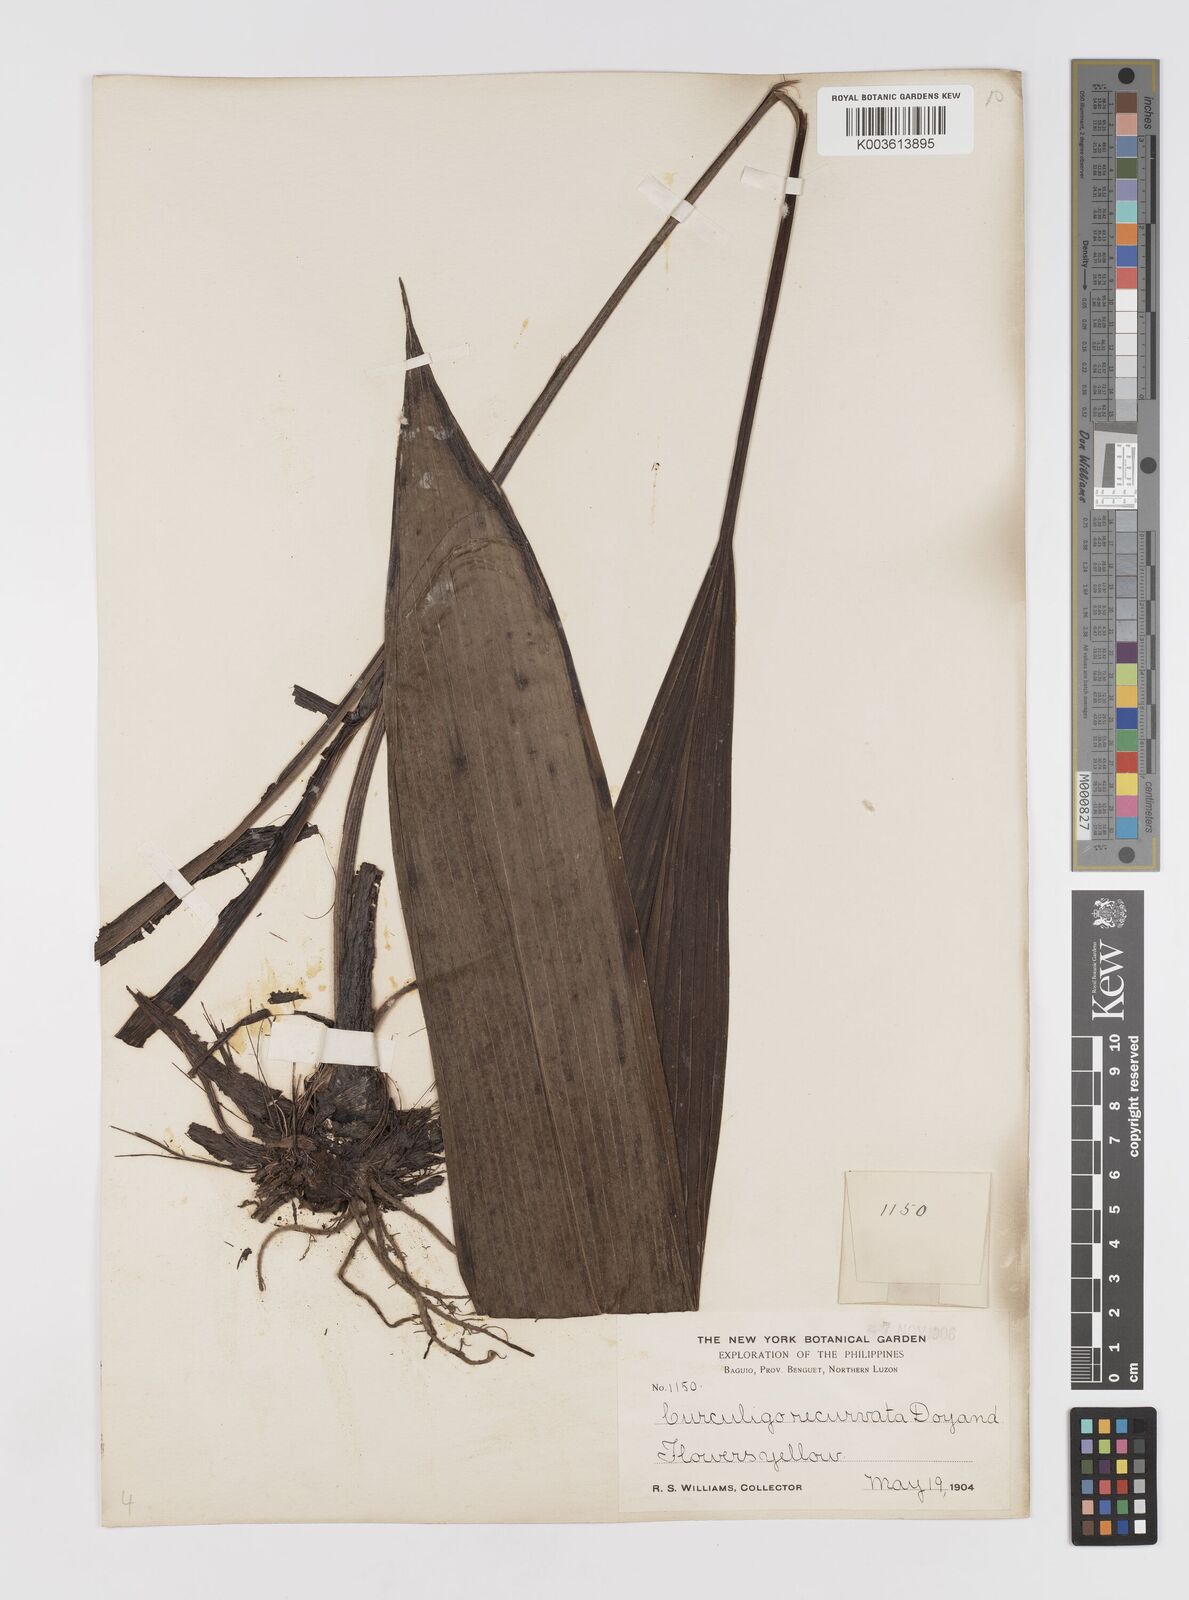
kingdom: Plantae
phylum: Tracheophyta
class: Liliopsida
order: Asparagales
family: Hypoxidaceae
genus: Curculigo
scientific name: Curculigo capitulata
